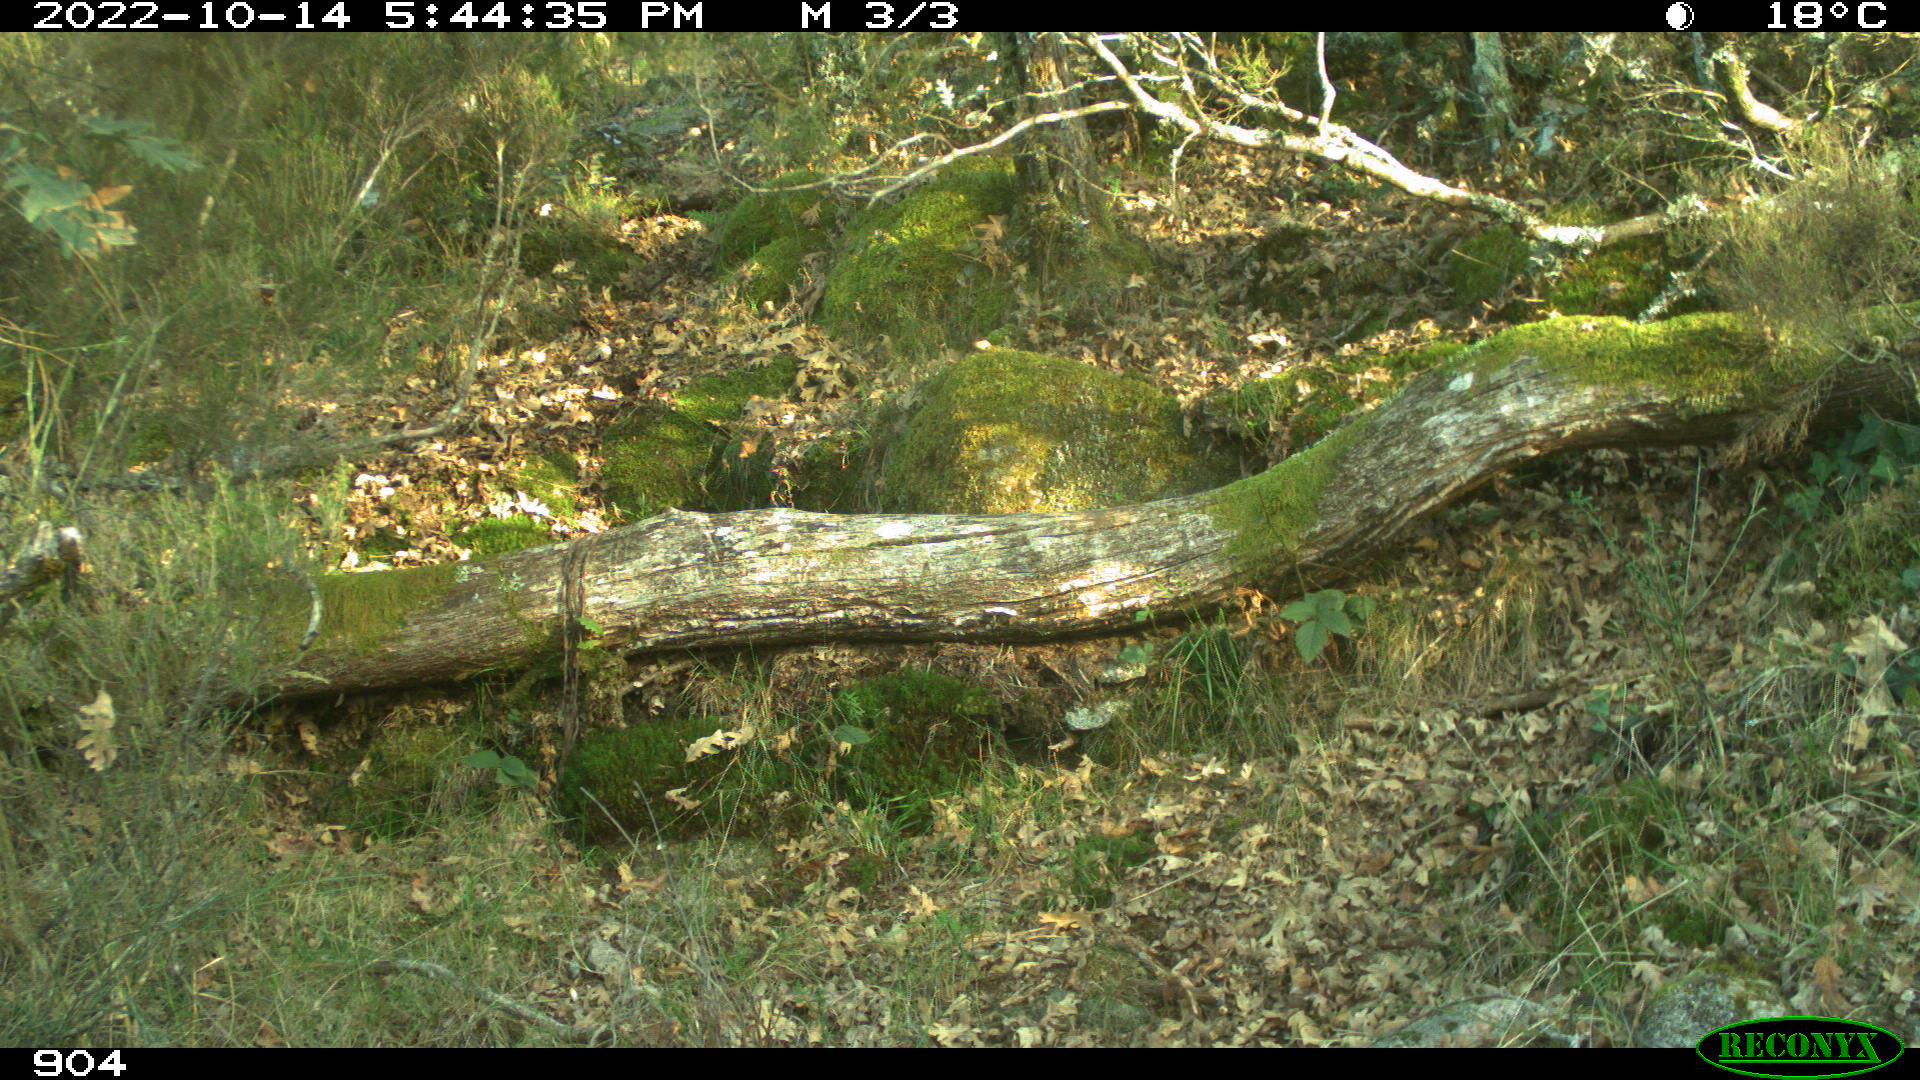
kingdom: Animalia
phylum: Chordata
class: Mammalia
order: Artiodactyla
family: Bovidae
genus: Bos
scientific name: Bos taurus
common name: Domesticated cattle
